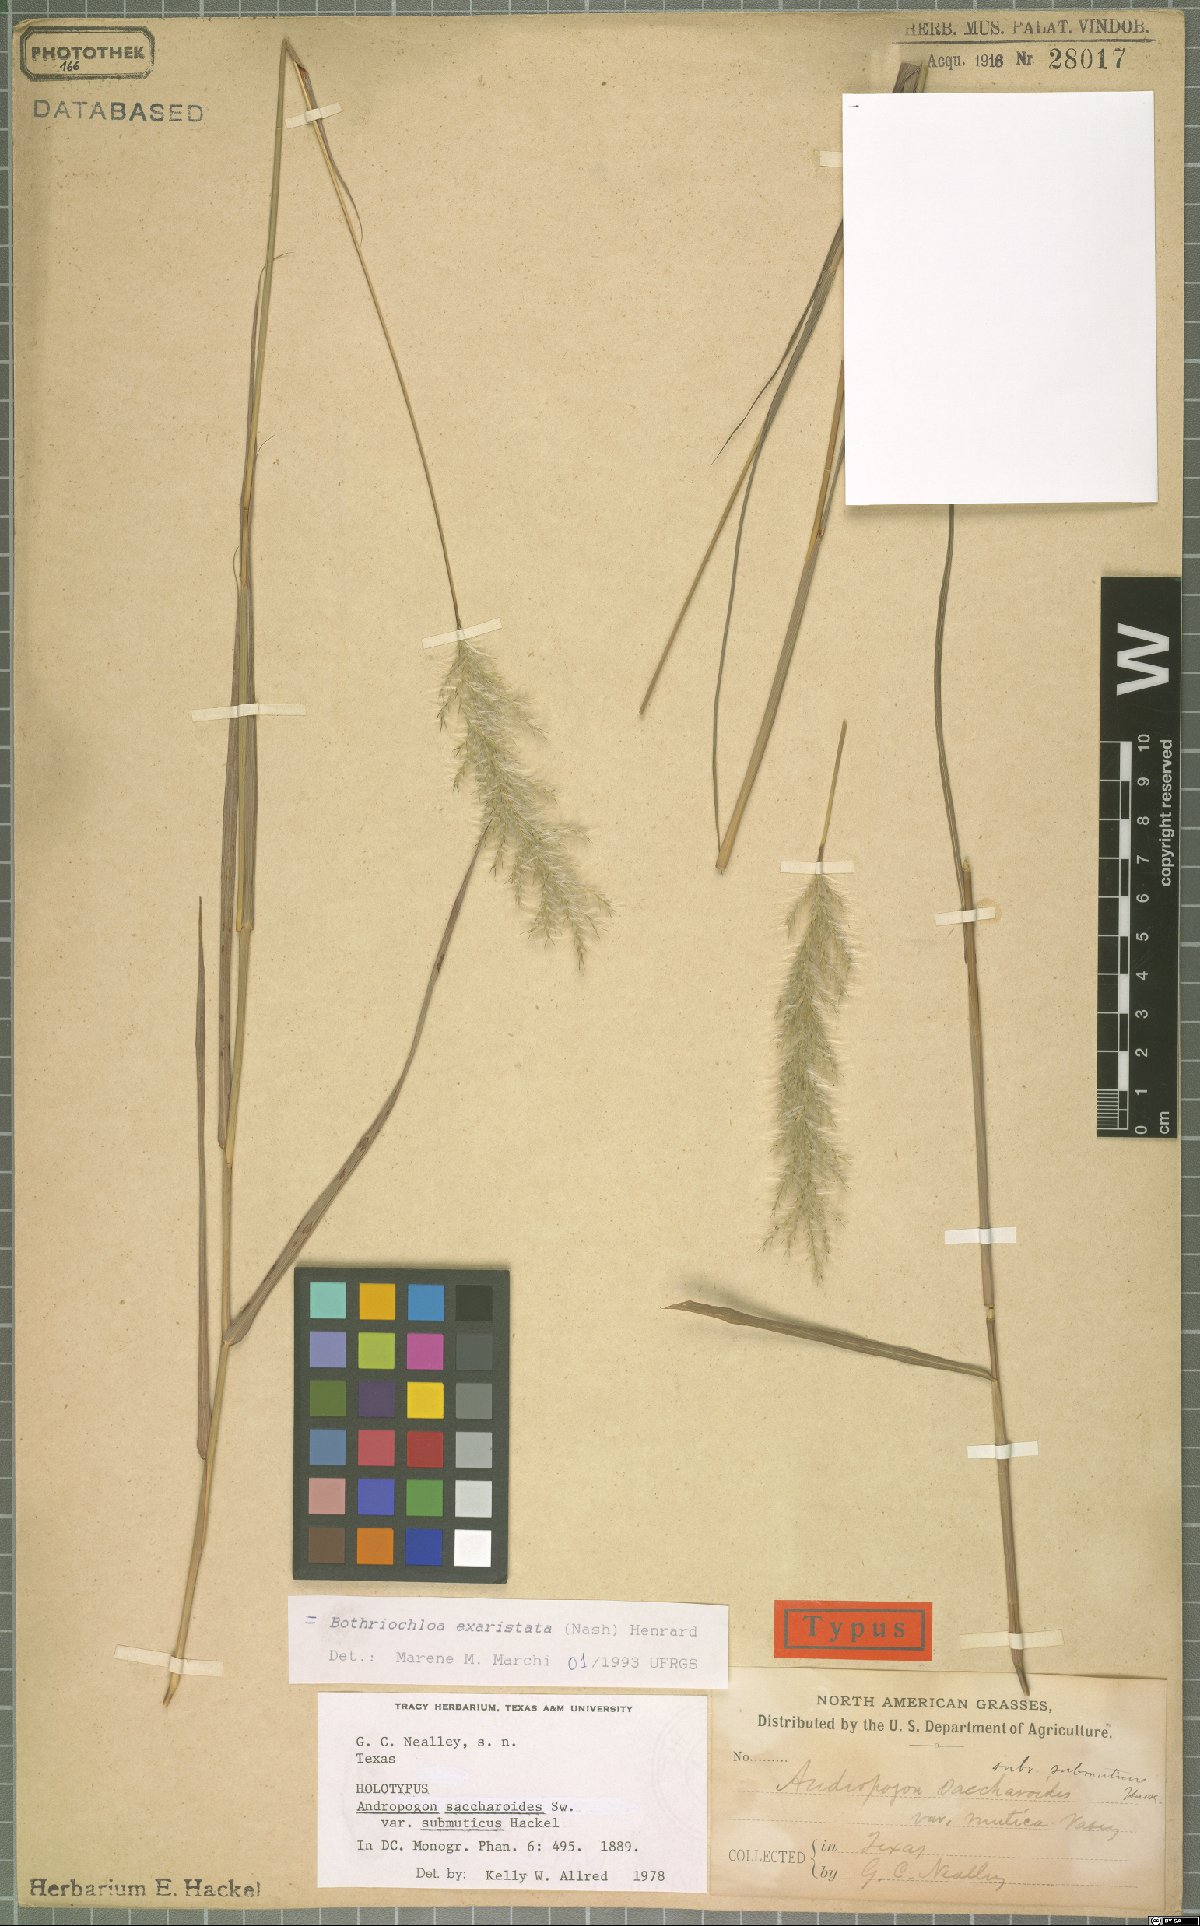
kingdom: Plantae
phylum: Tracheophyta
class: Liliopsida
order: Poales
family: Poaceae
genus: Bothriochloa
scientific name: Bothriochloa exaristata
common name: Awnless bluestem
